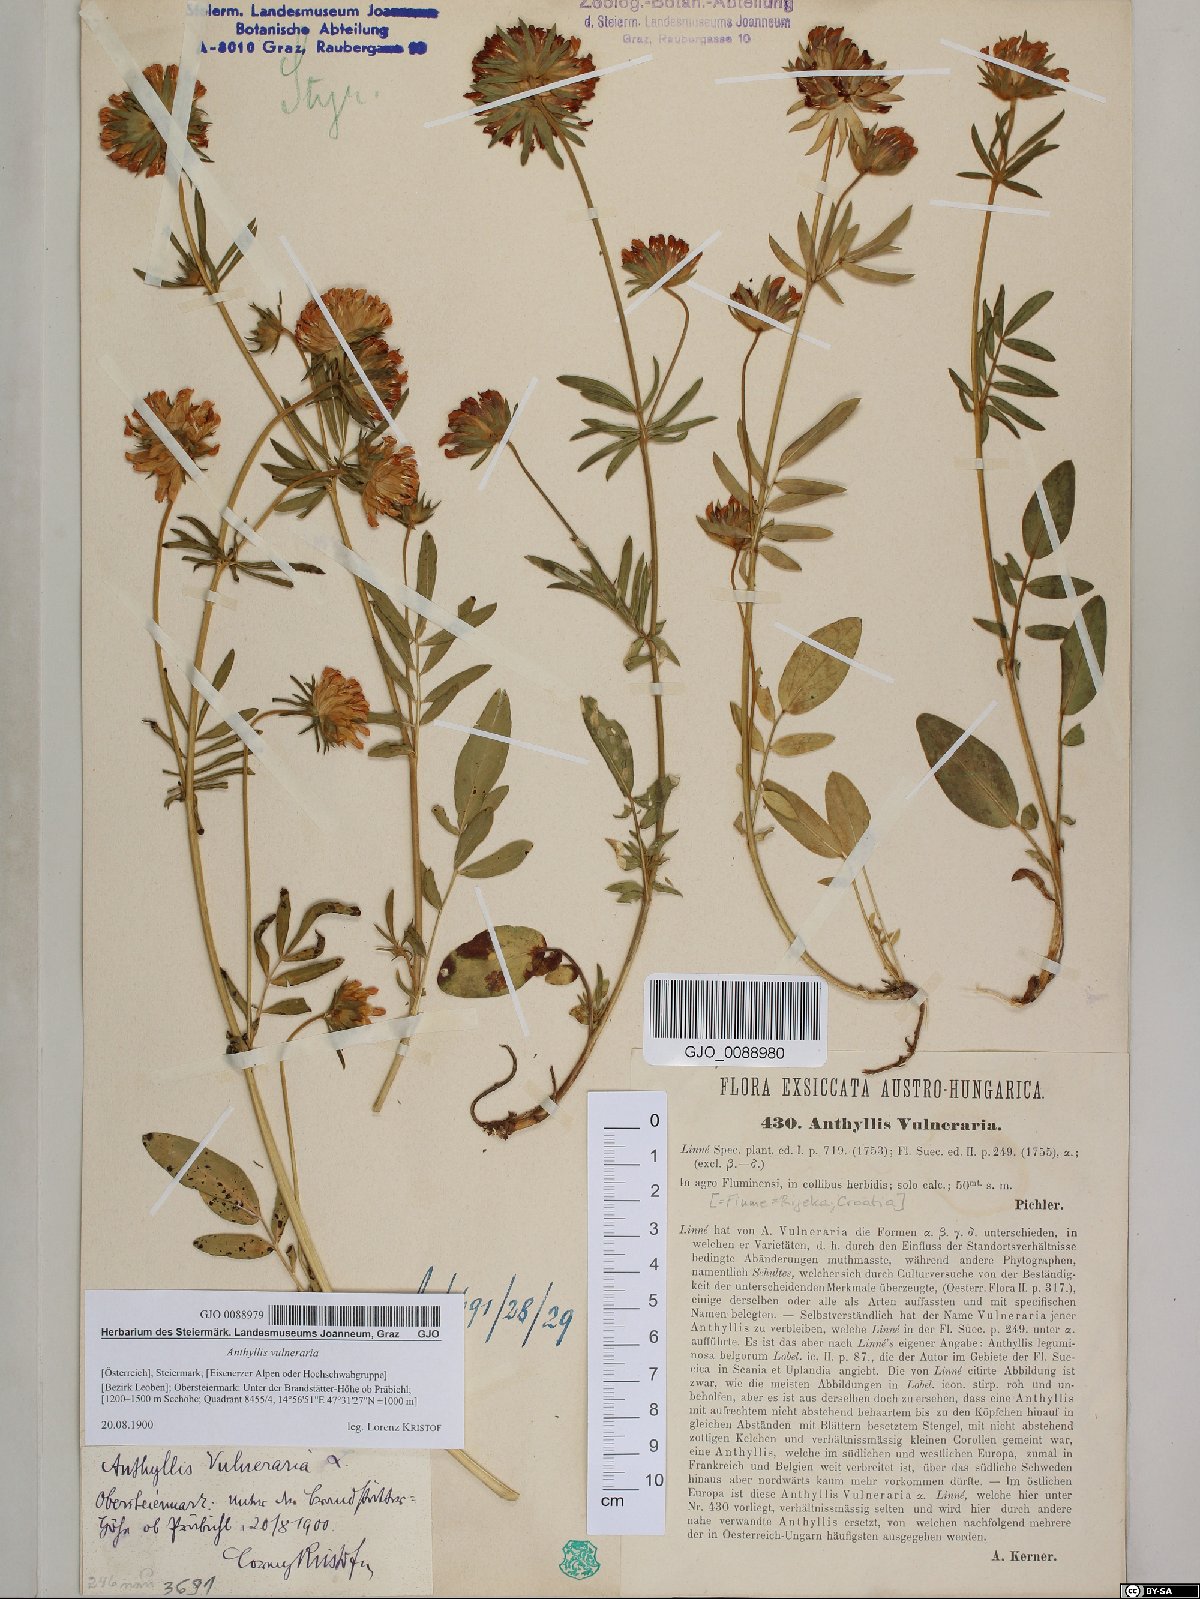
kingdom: Plantae
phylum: Tracheophyta
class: Magnoliopsida
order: Fabales
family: Fabaceae
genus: Anthyllis
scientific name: Anthyllis vulneraria
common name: Kidney vetch
